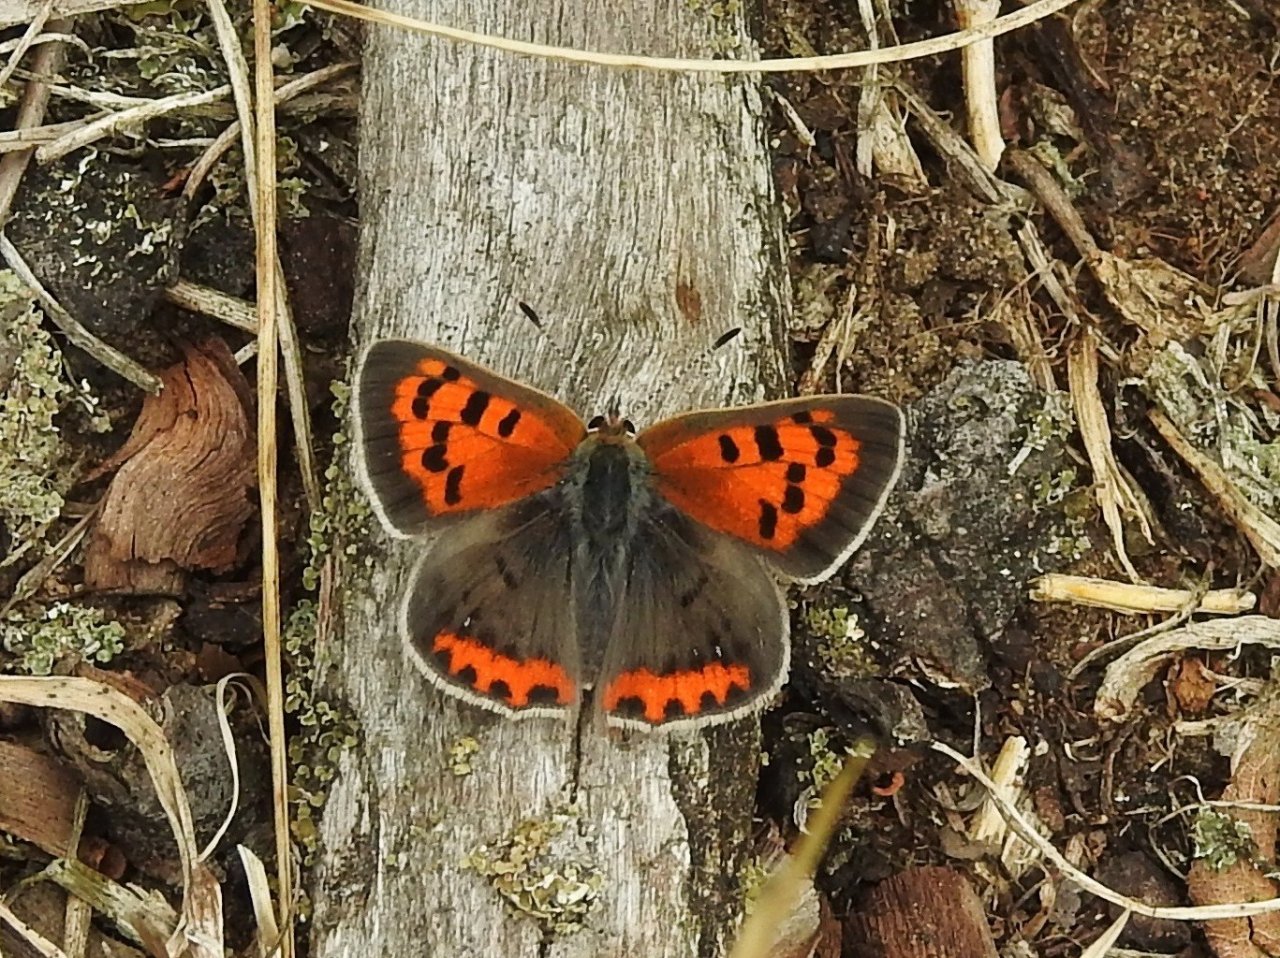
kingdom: Animalia
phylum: Arthropoda
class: Insecta
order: Lepidoptera
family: Lycaenidae
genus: Lycaena
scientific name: Lycaena phlaeas
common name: American Copper
